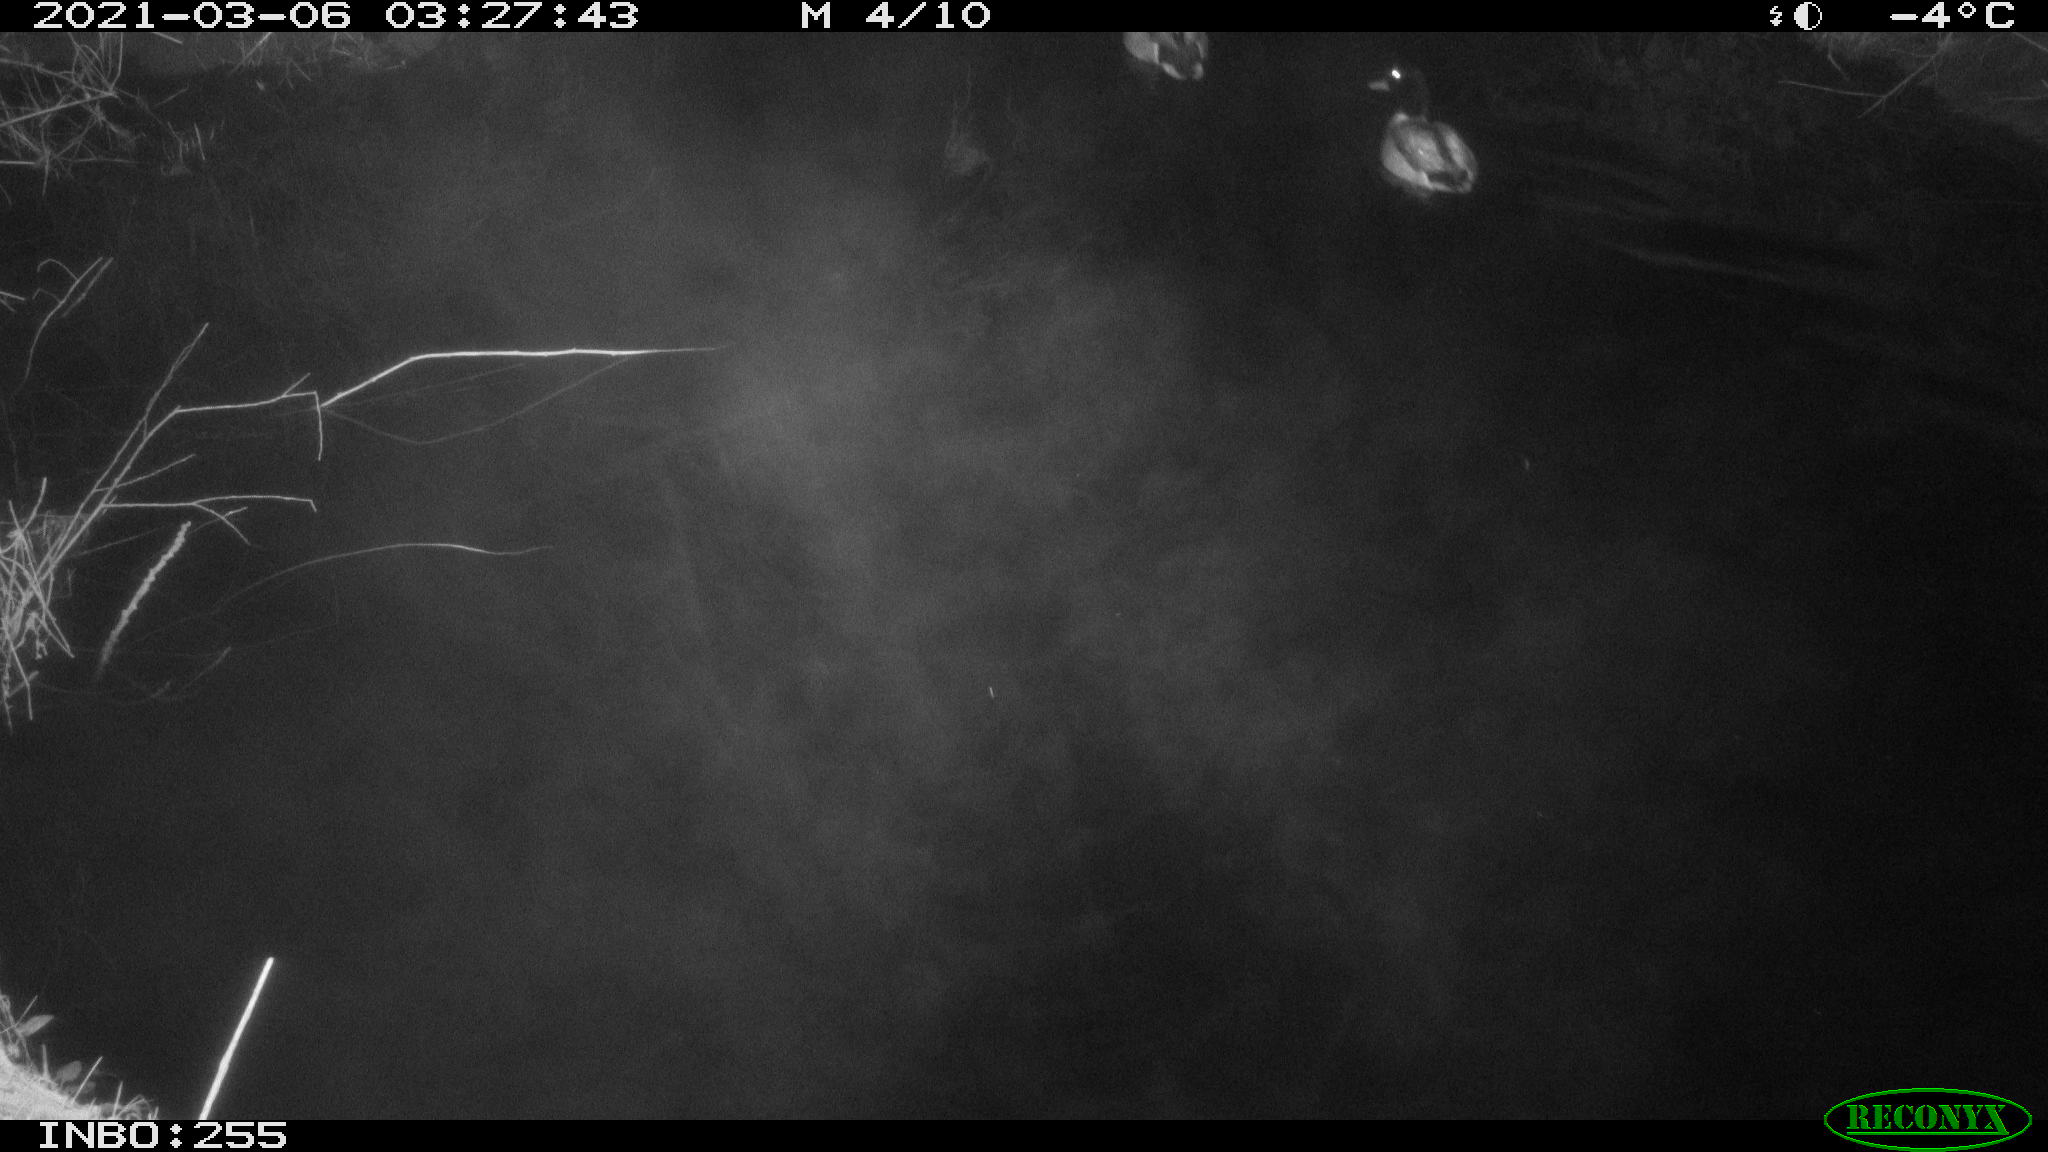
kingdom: Animalia
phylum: Chordata
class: Aves
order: Anseriformes
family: Anatidae
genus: Anas
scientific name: Anas platyrhynchos
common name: Mallard
